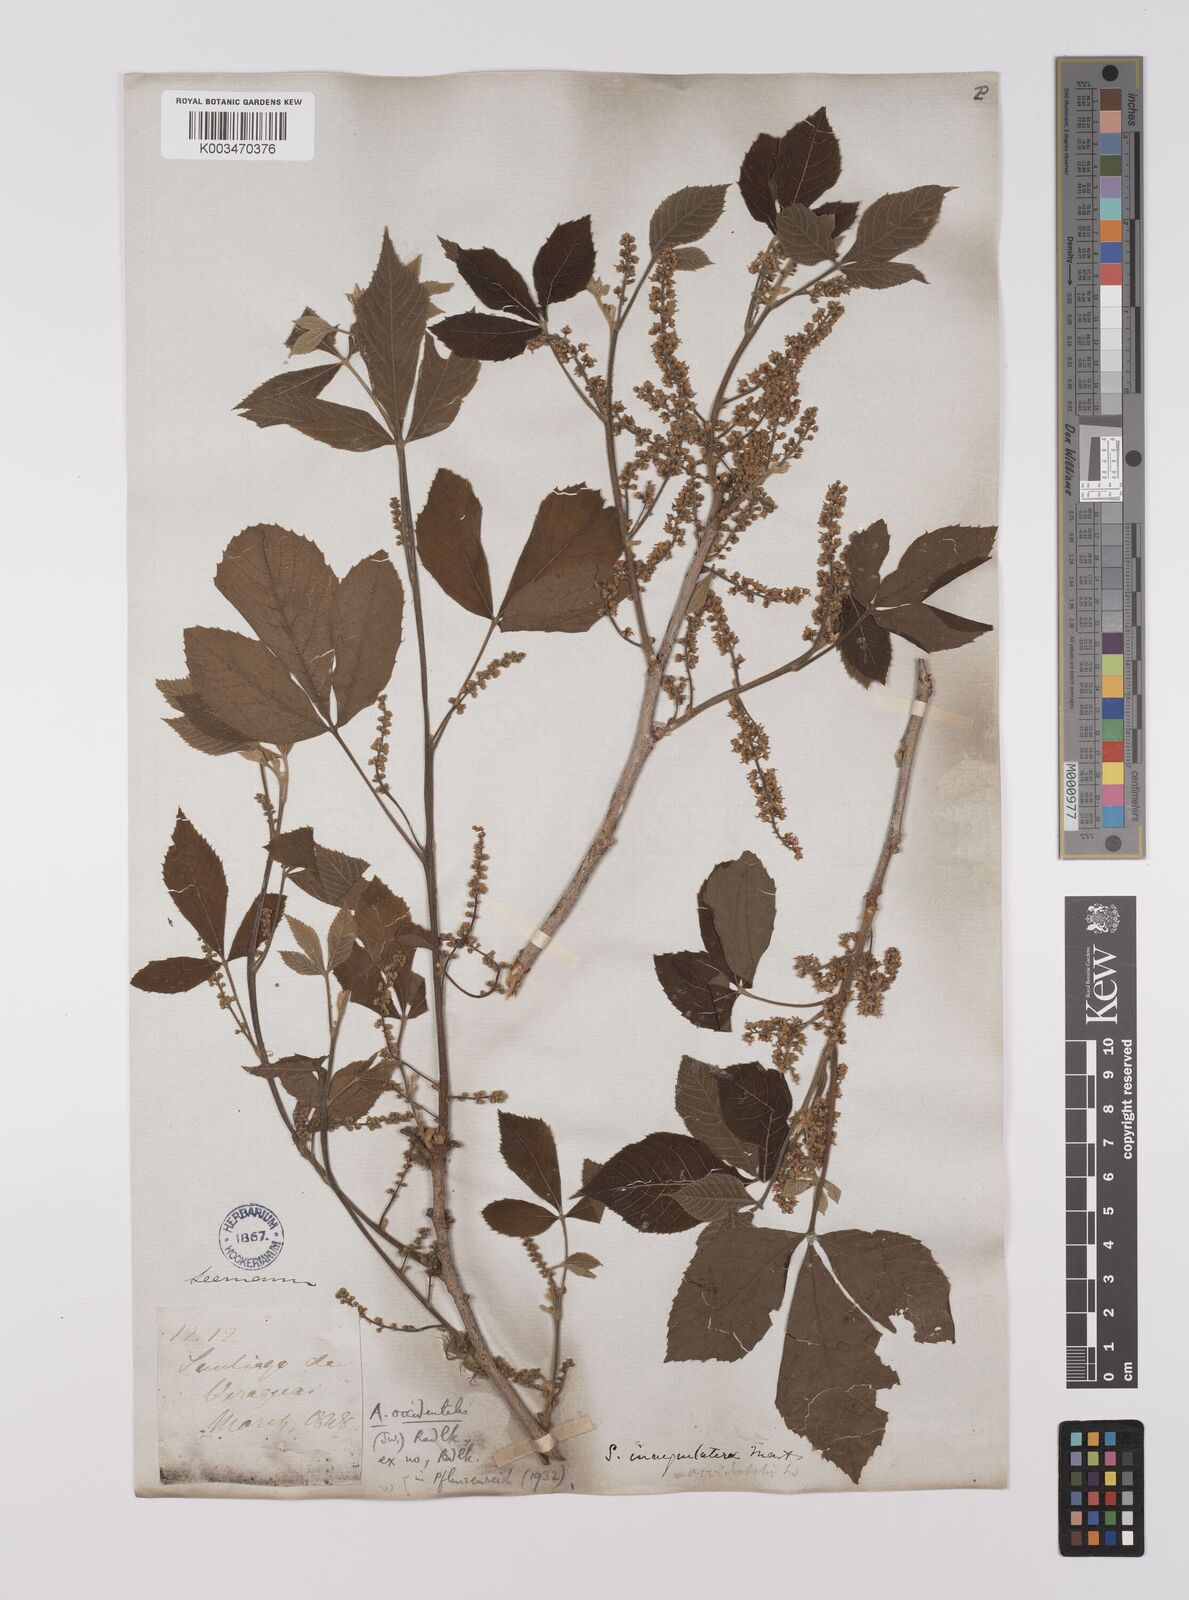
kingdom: Plantae
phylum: Tracheophyta
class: Magnoliopsida
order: Sapindales
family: Sapindaceae
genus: Allophylus
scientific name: Allophylus
